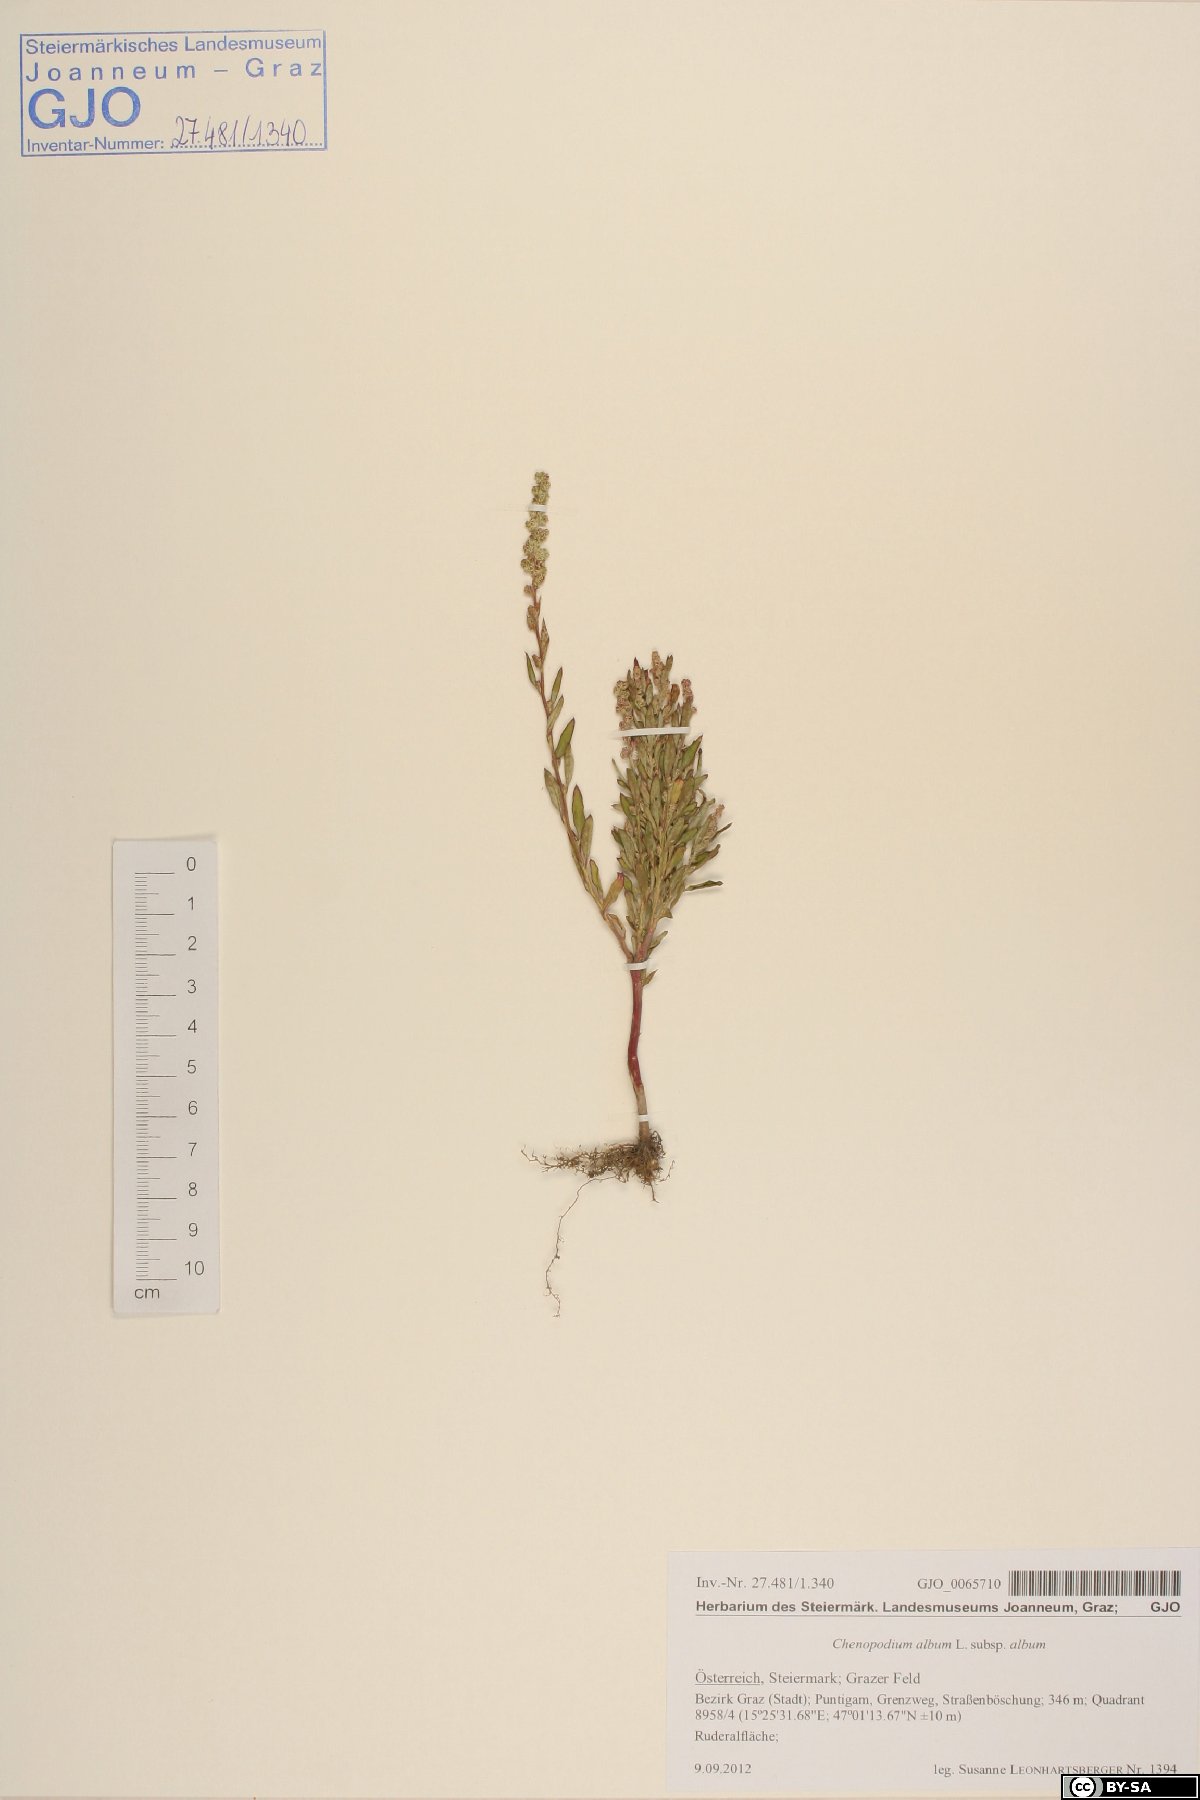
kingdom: Plantae
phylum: Tracheophyta
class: Magnoliopsida
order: Caryophyllales
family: Amaranthaceae
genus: Chenopodium
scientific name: Chenopodium album
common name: Fat-hen
